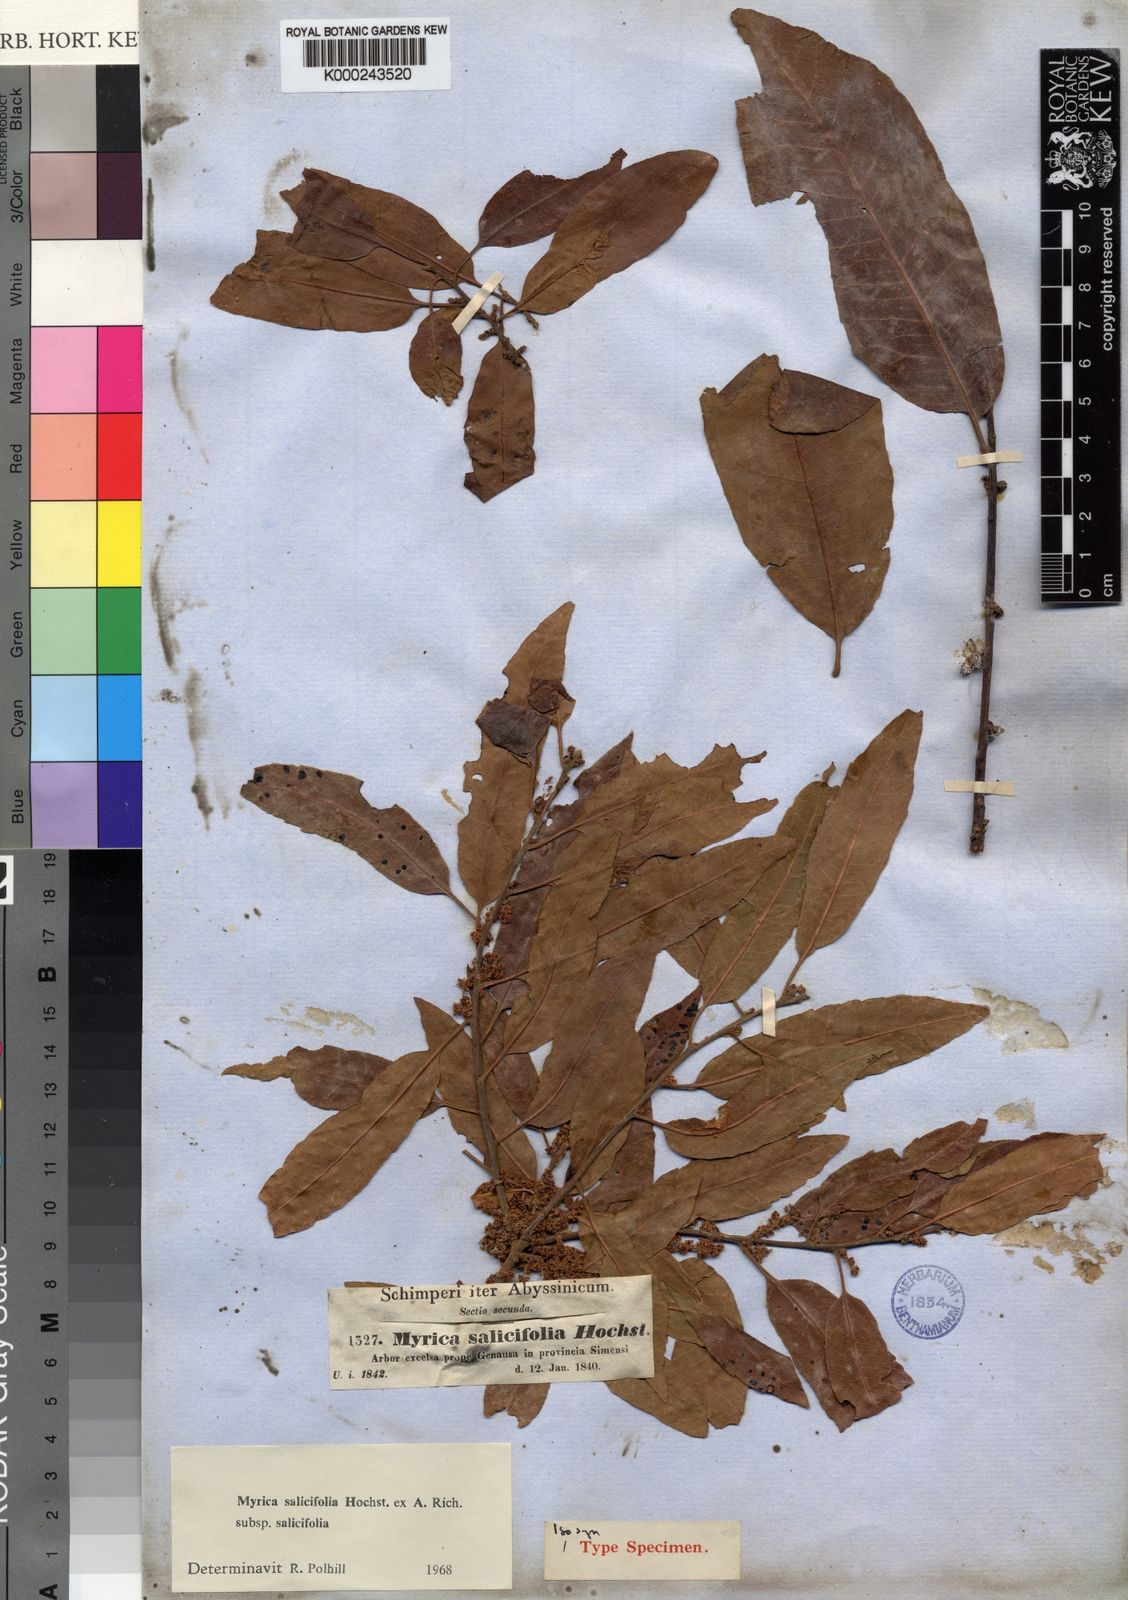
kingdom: Plantae
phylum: Tracheophyta
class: Magnoliopsida
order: Fagales
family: Myricaceae
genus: Morella
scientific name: Morella salicifolia
